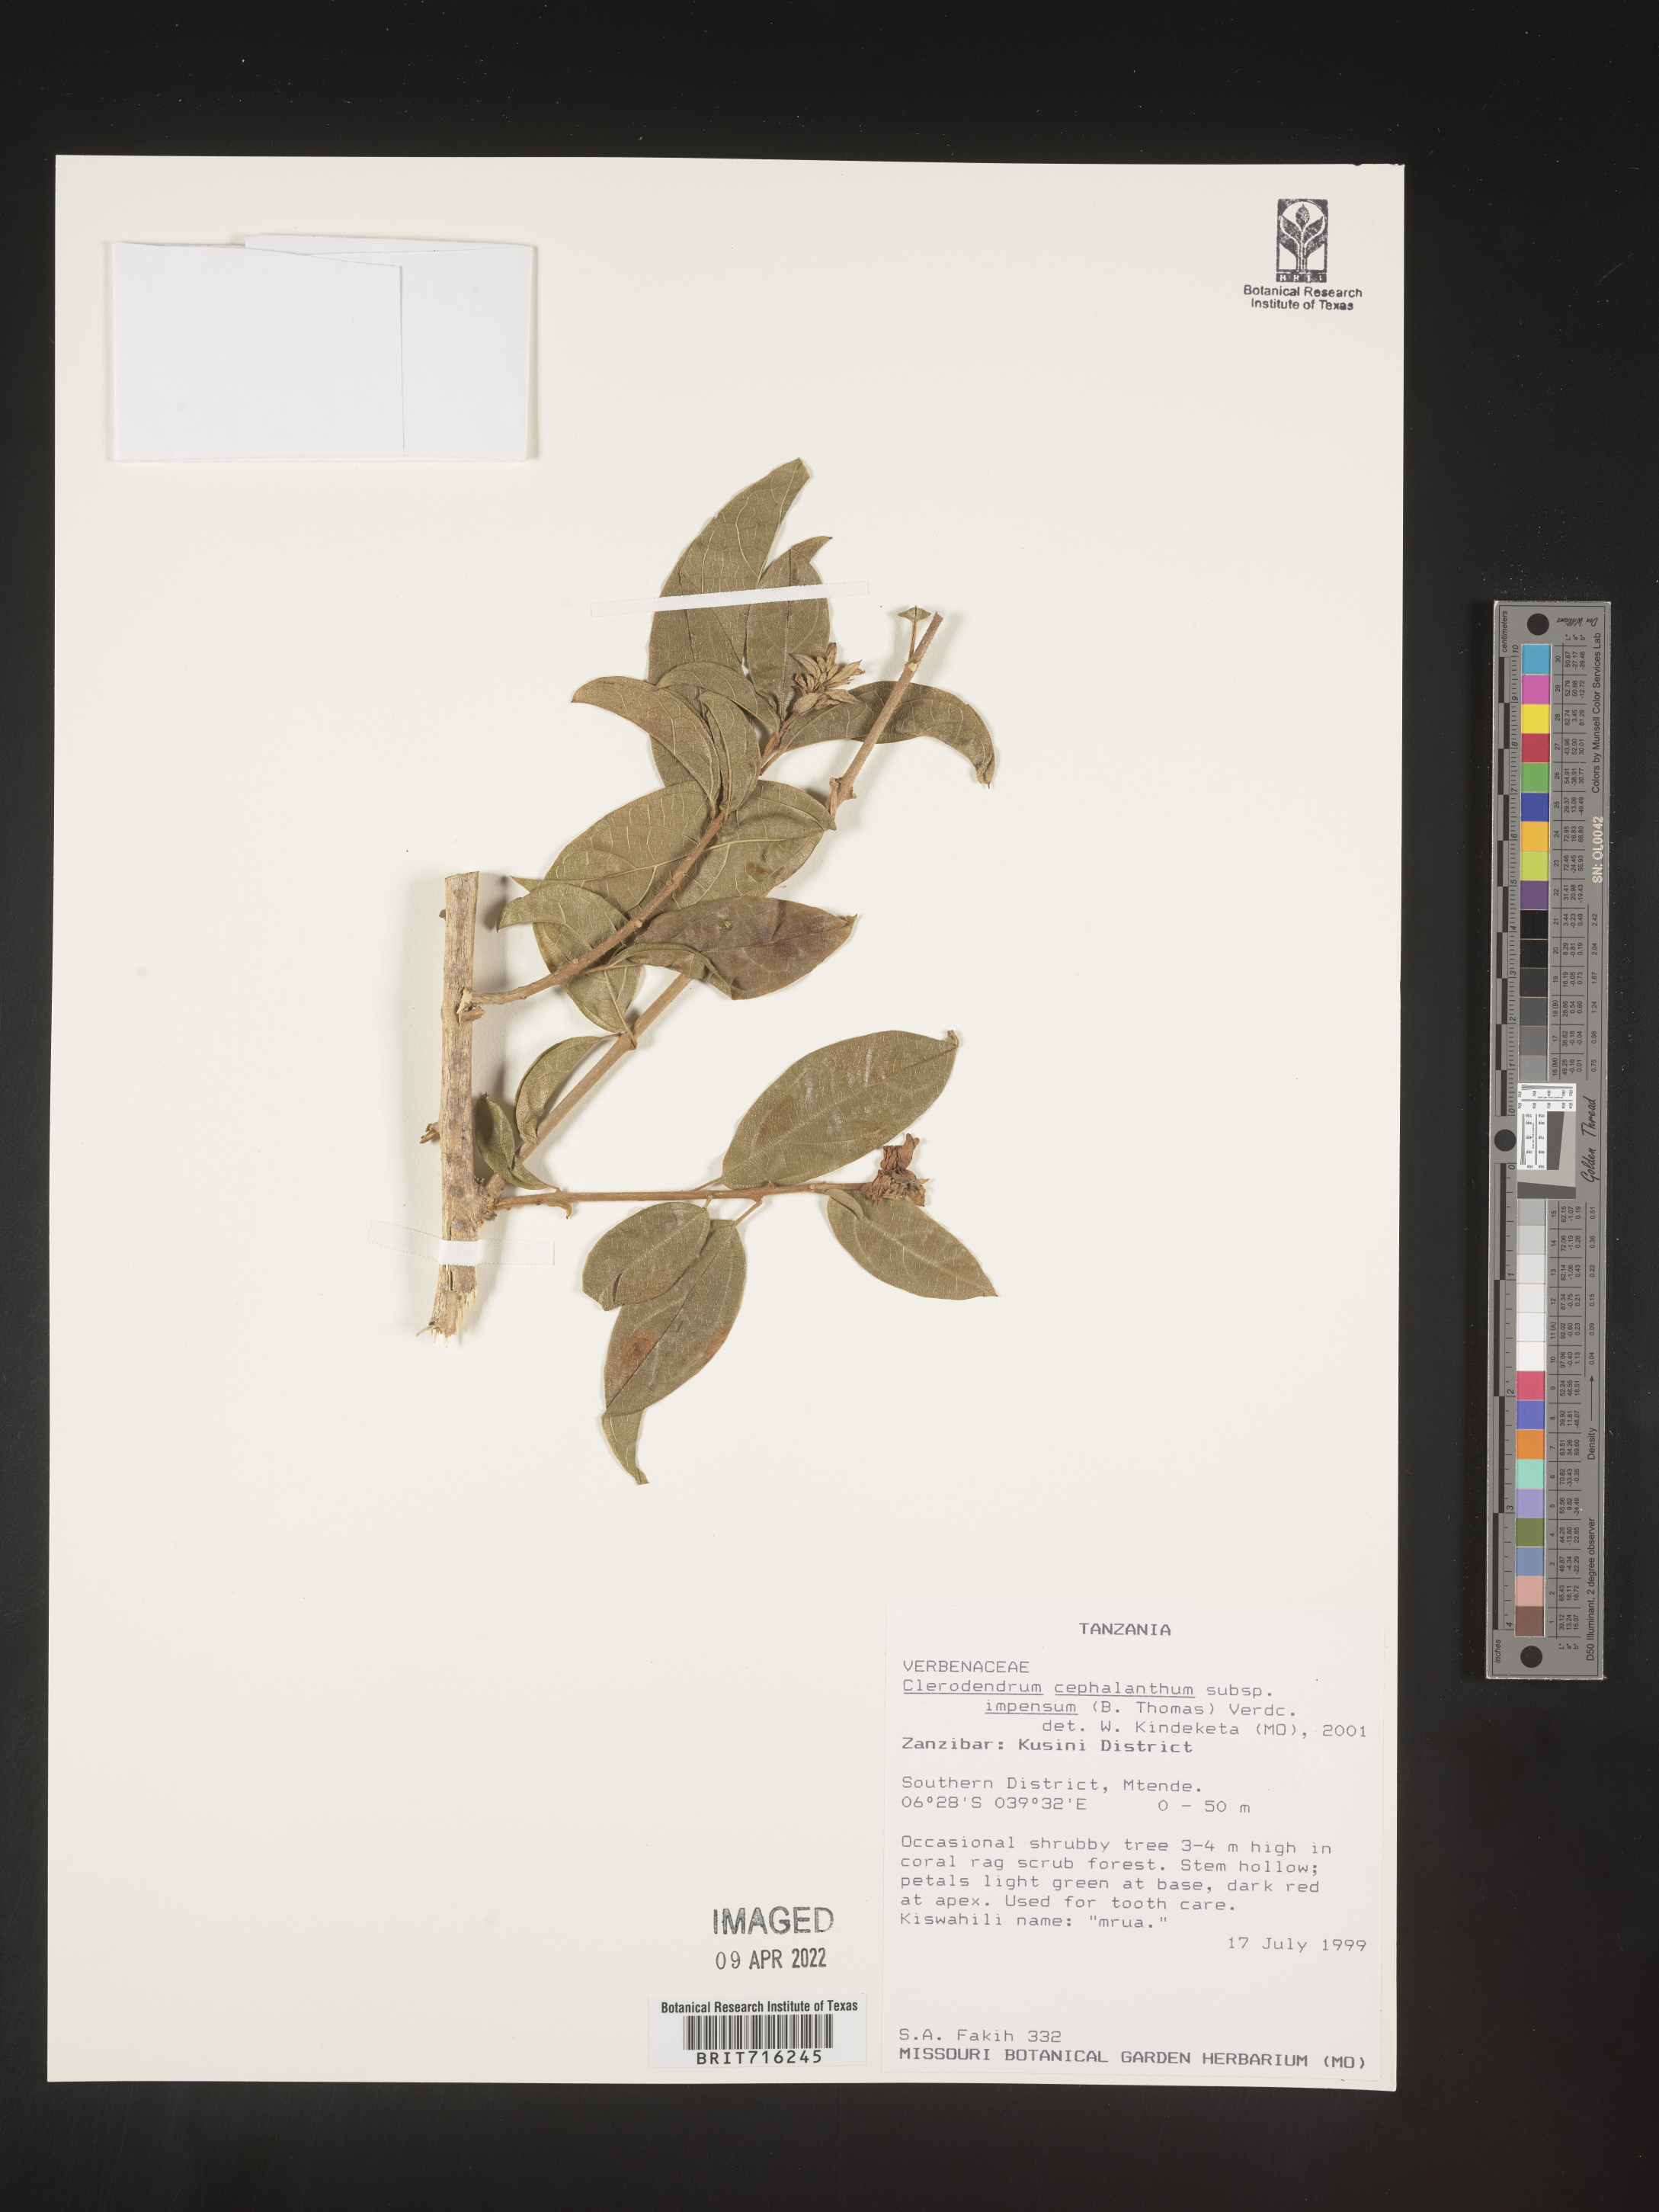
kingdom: Plantae
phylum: Tracheophyta
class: Magnoliopsida
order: Lamiales
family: Lamiaceae
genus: Clerodendrum
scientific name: Clerodendrum
